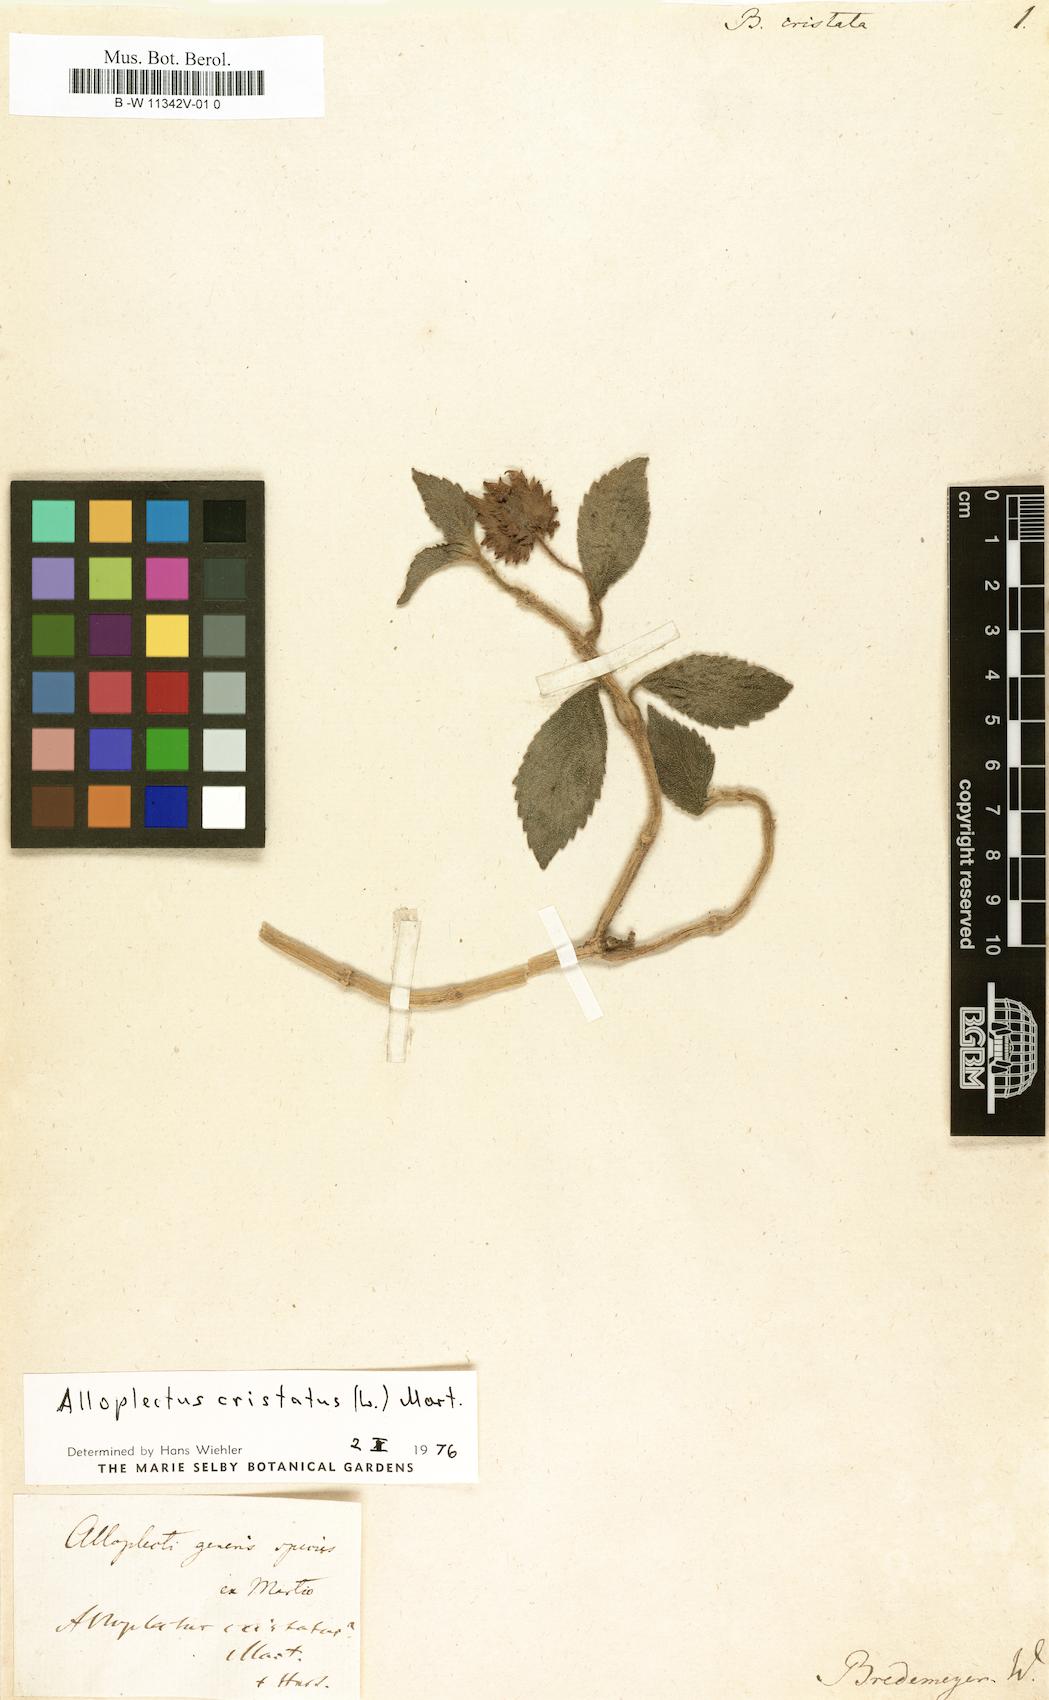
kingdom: Plantae
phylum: Tracheophyta
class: Magnoliopsida
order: Lamiales
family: Gesneriaceae
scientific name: Gesneriaceae
